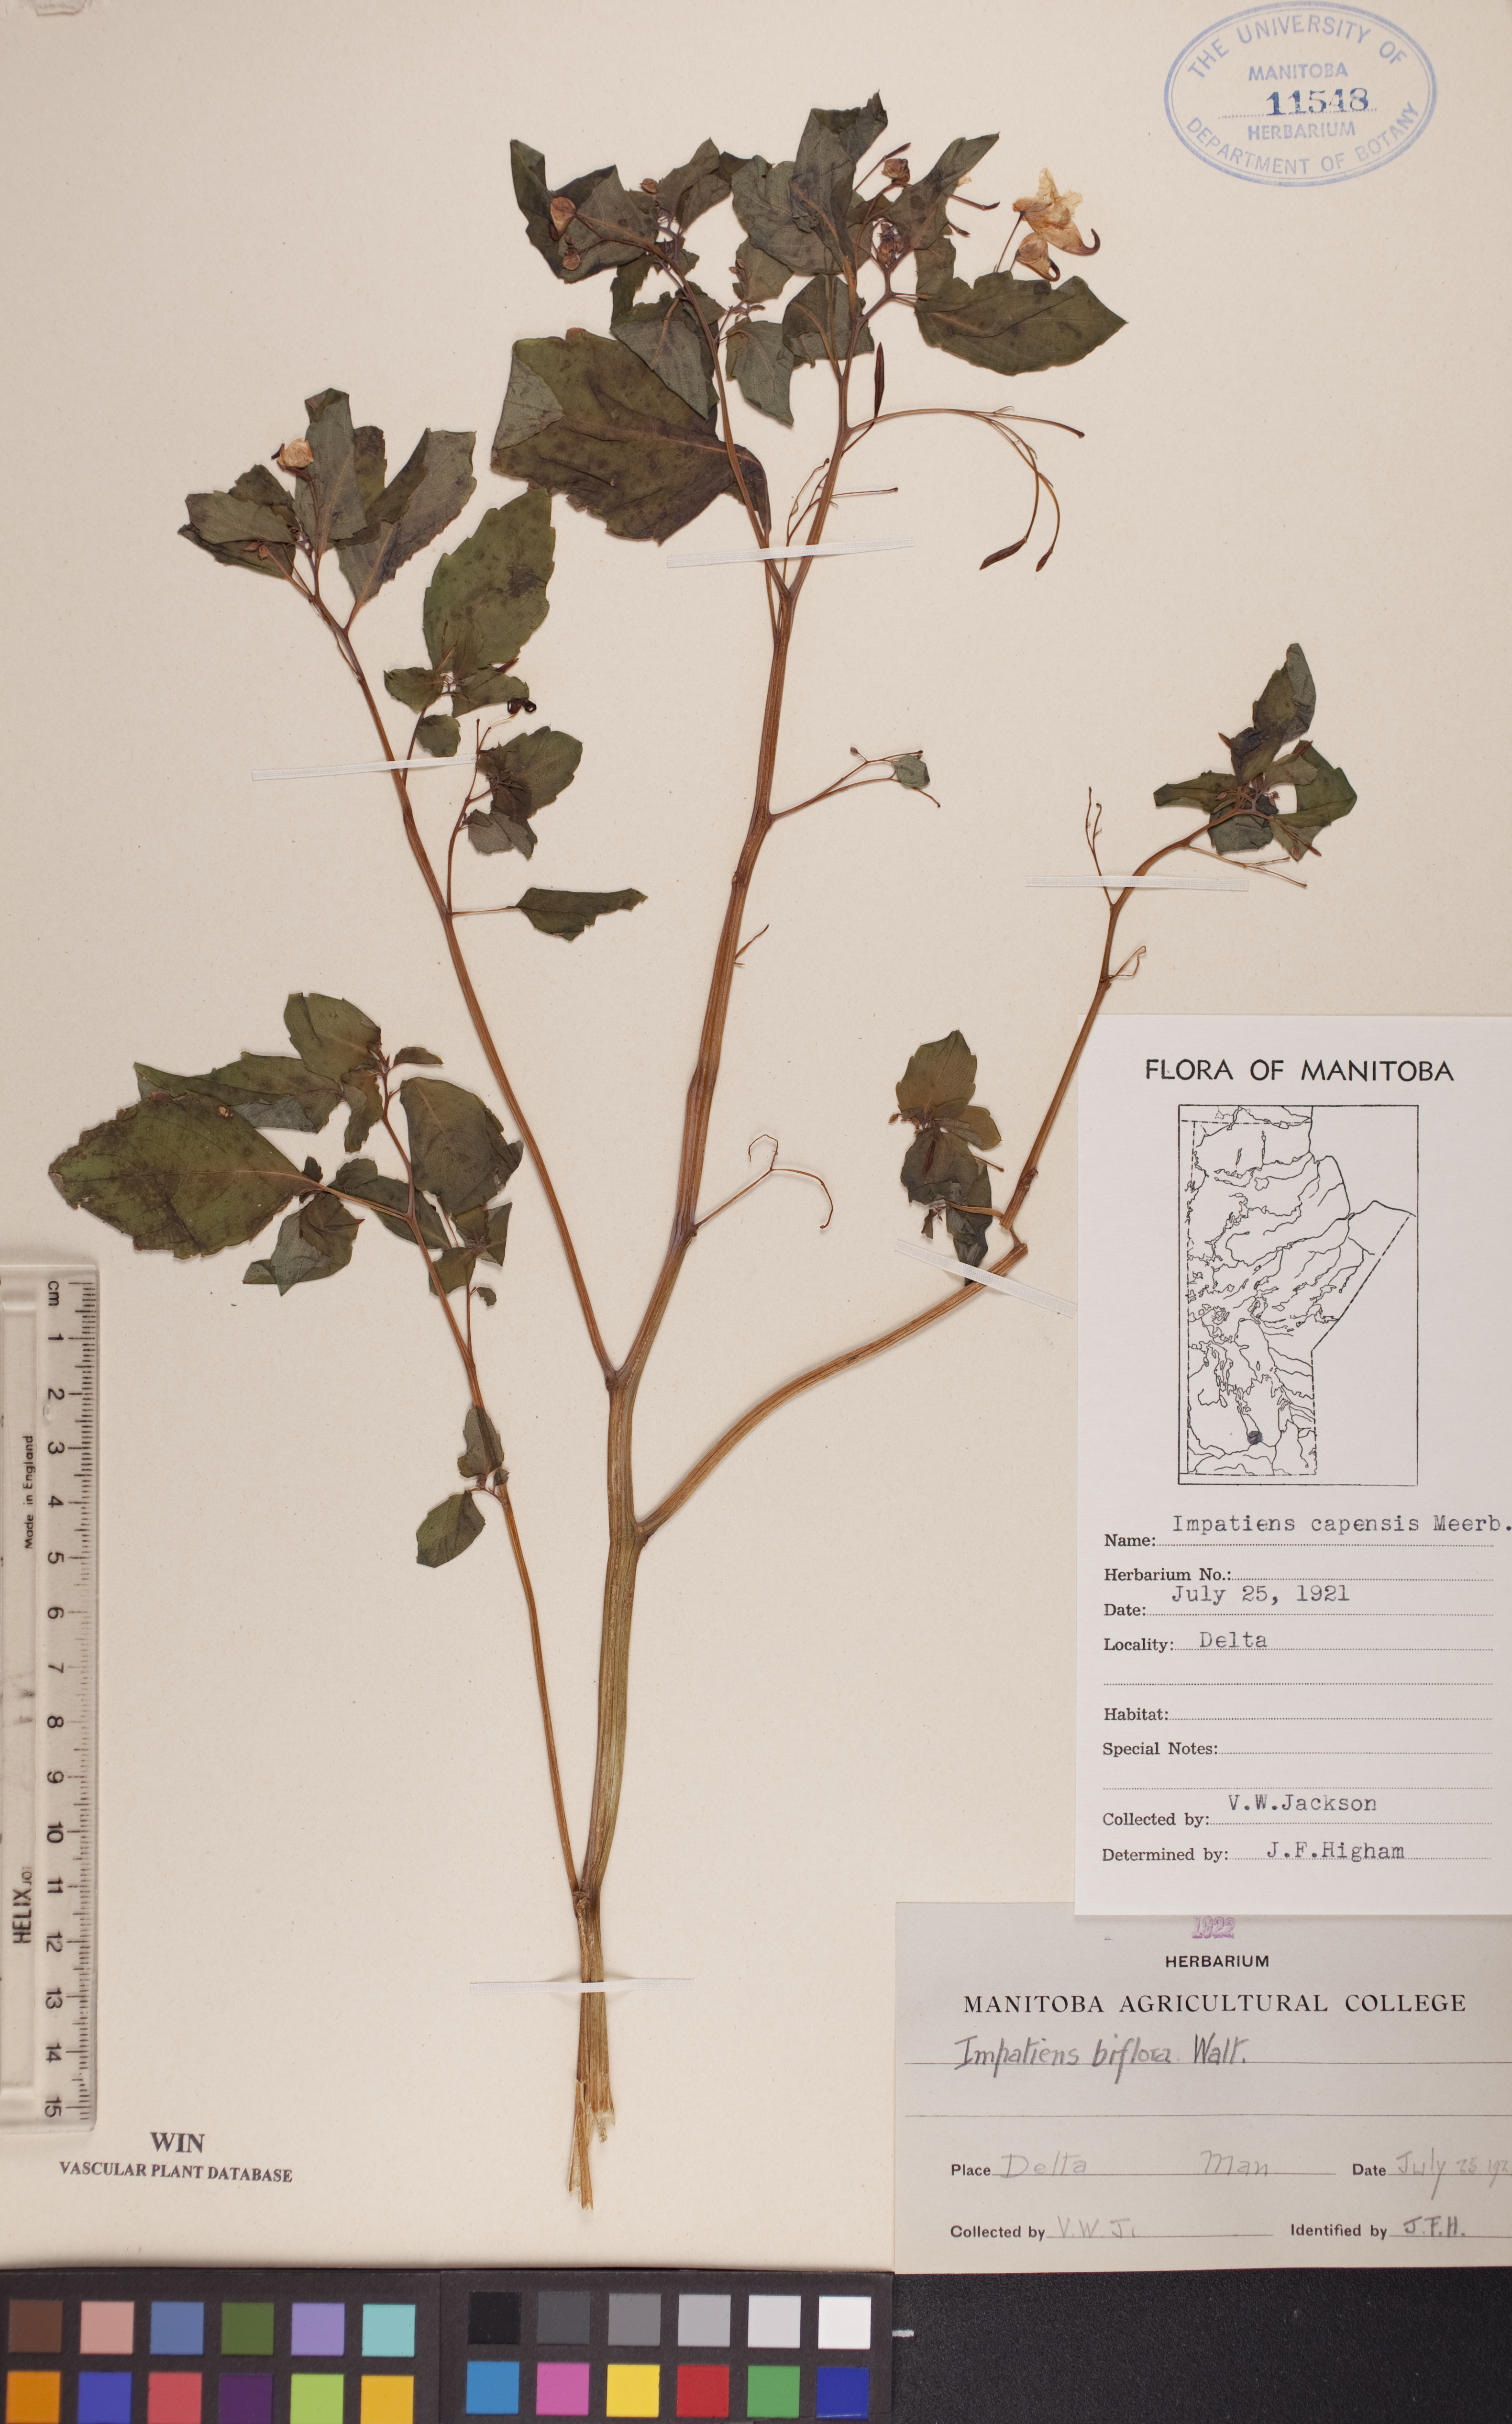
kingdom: Plantae
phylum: Tracheophyta
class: Magnoliopsida
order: Ericales
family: Balsaminaceae
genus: Impatiens
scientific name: Impatiens capensis
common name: Orange balsam
